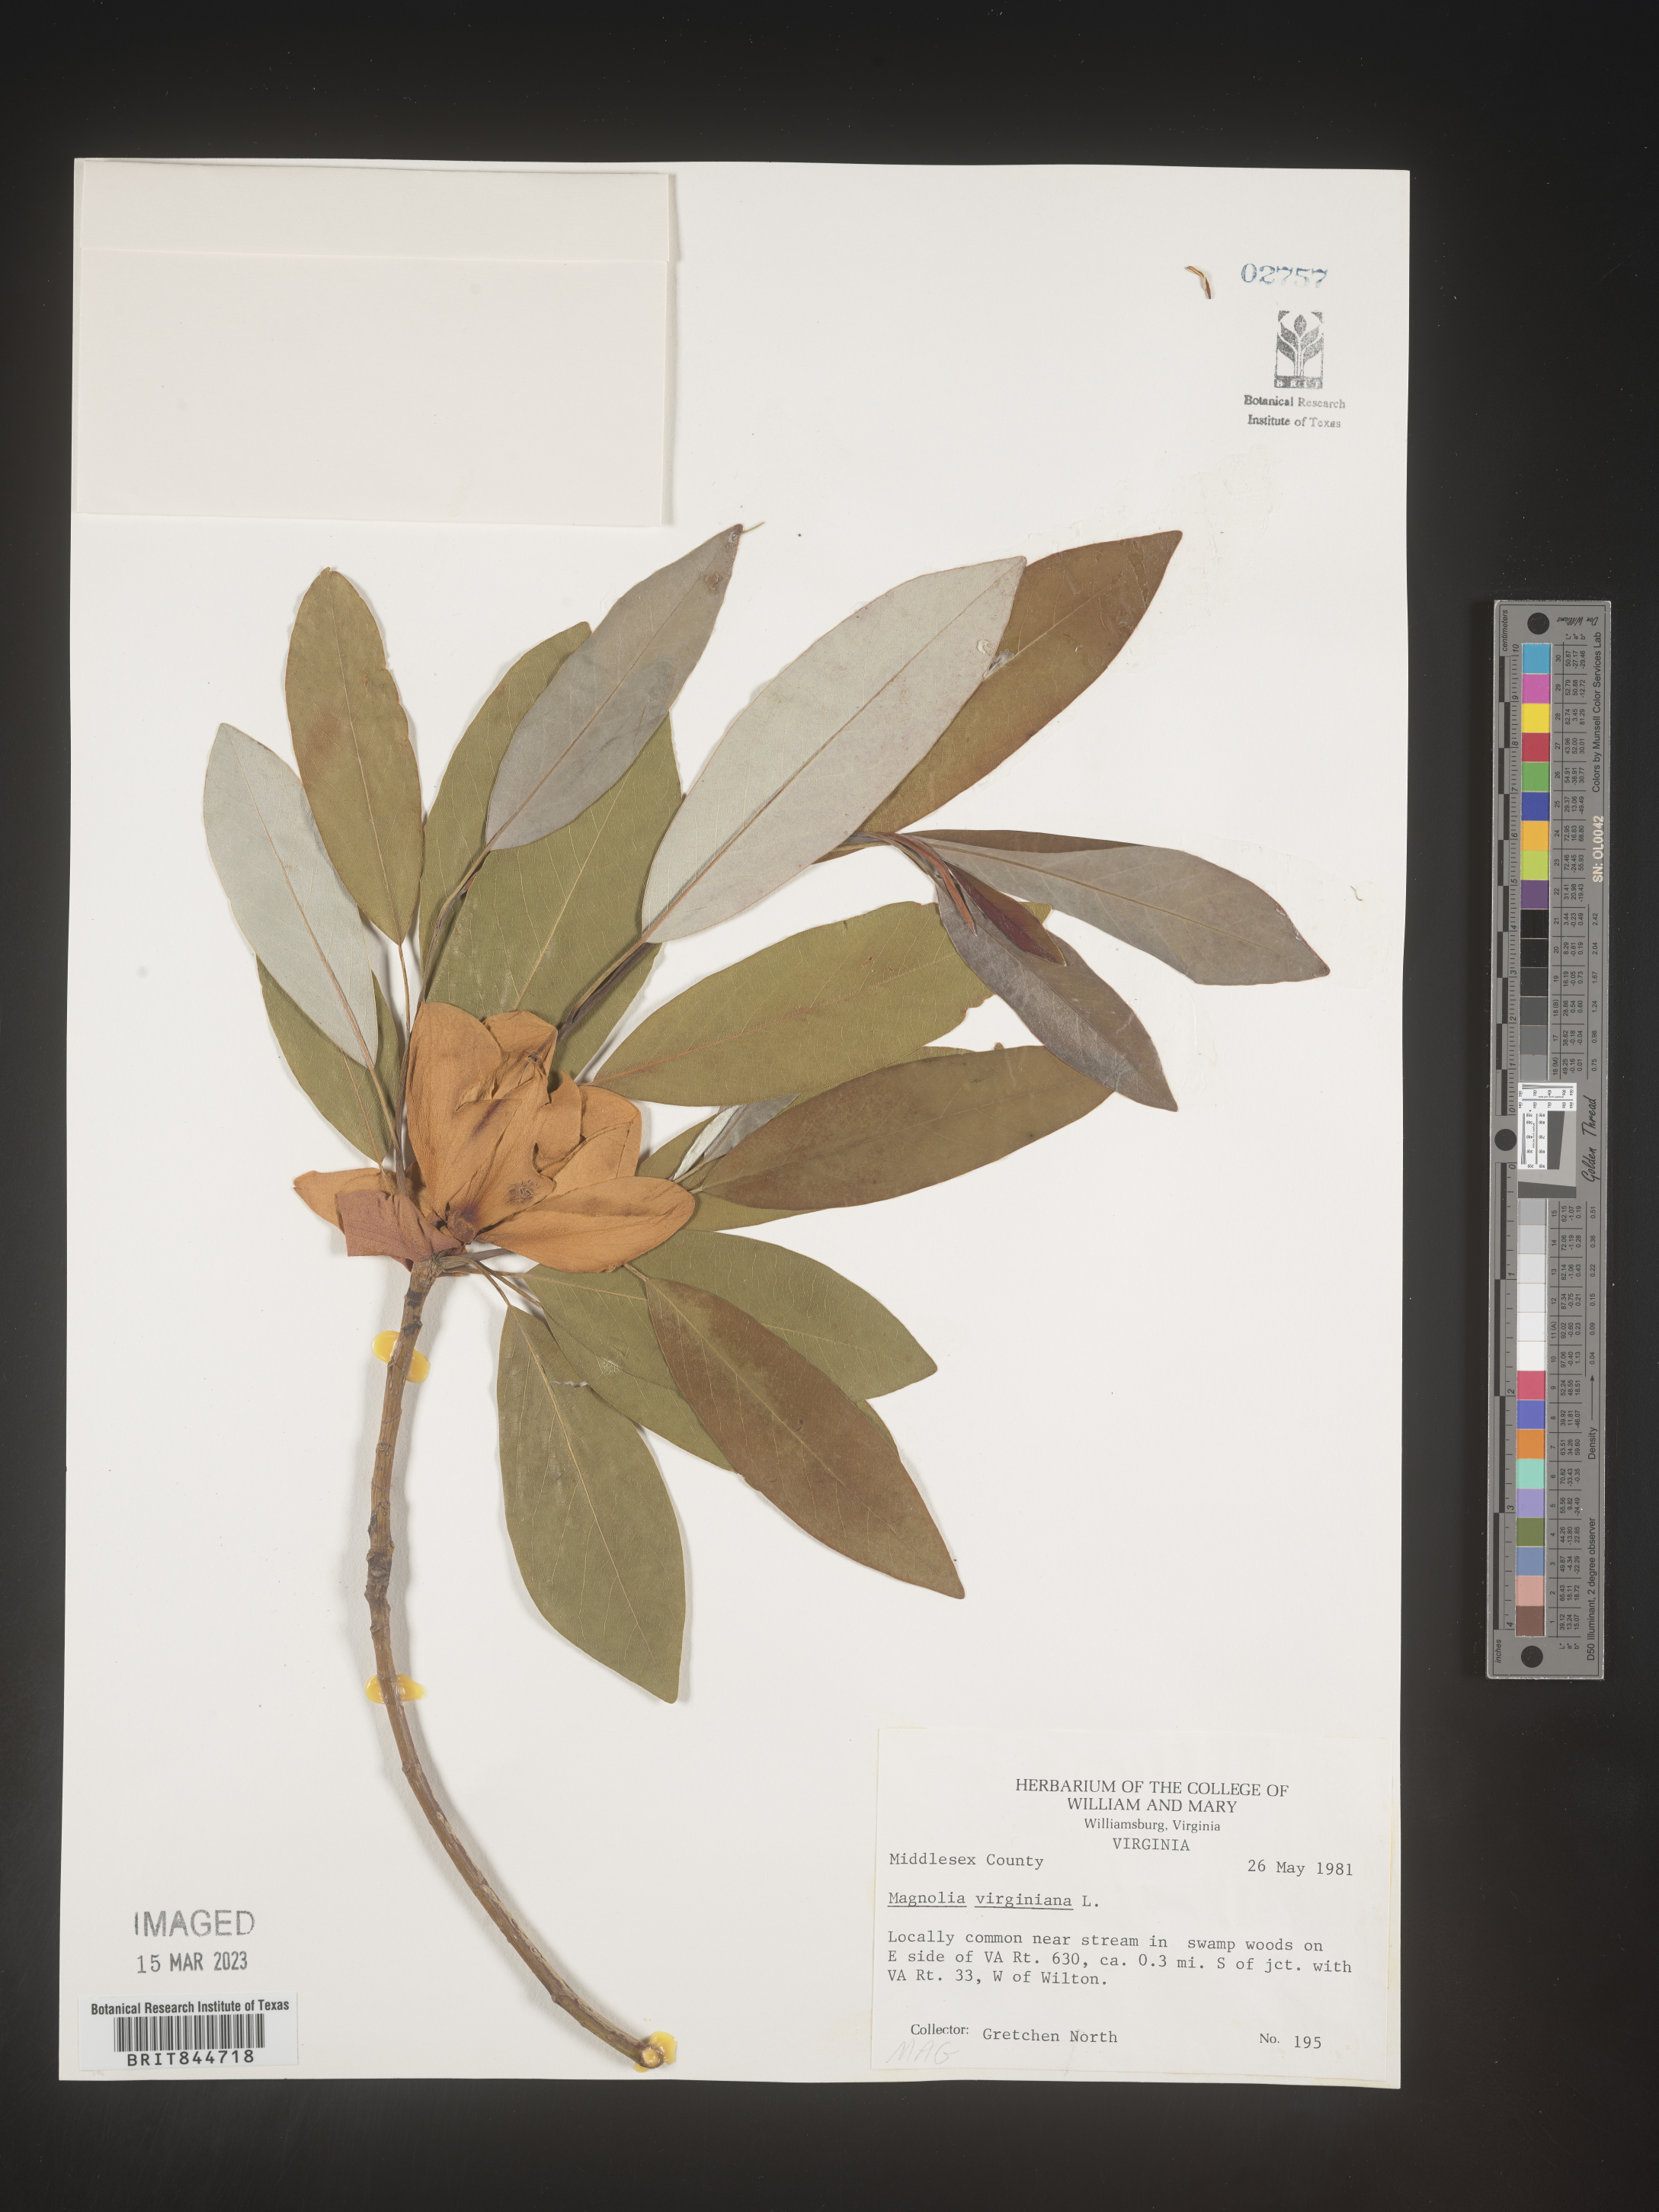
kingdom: Plantae
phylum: Tracheophyta
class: Magnoliopsida
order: Magnoliales
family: Magnoliaceae
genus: Magnolia
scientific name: Magnolia virginiana
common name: Swamp bay
